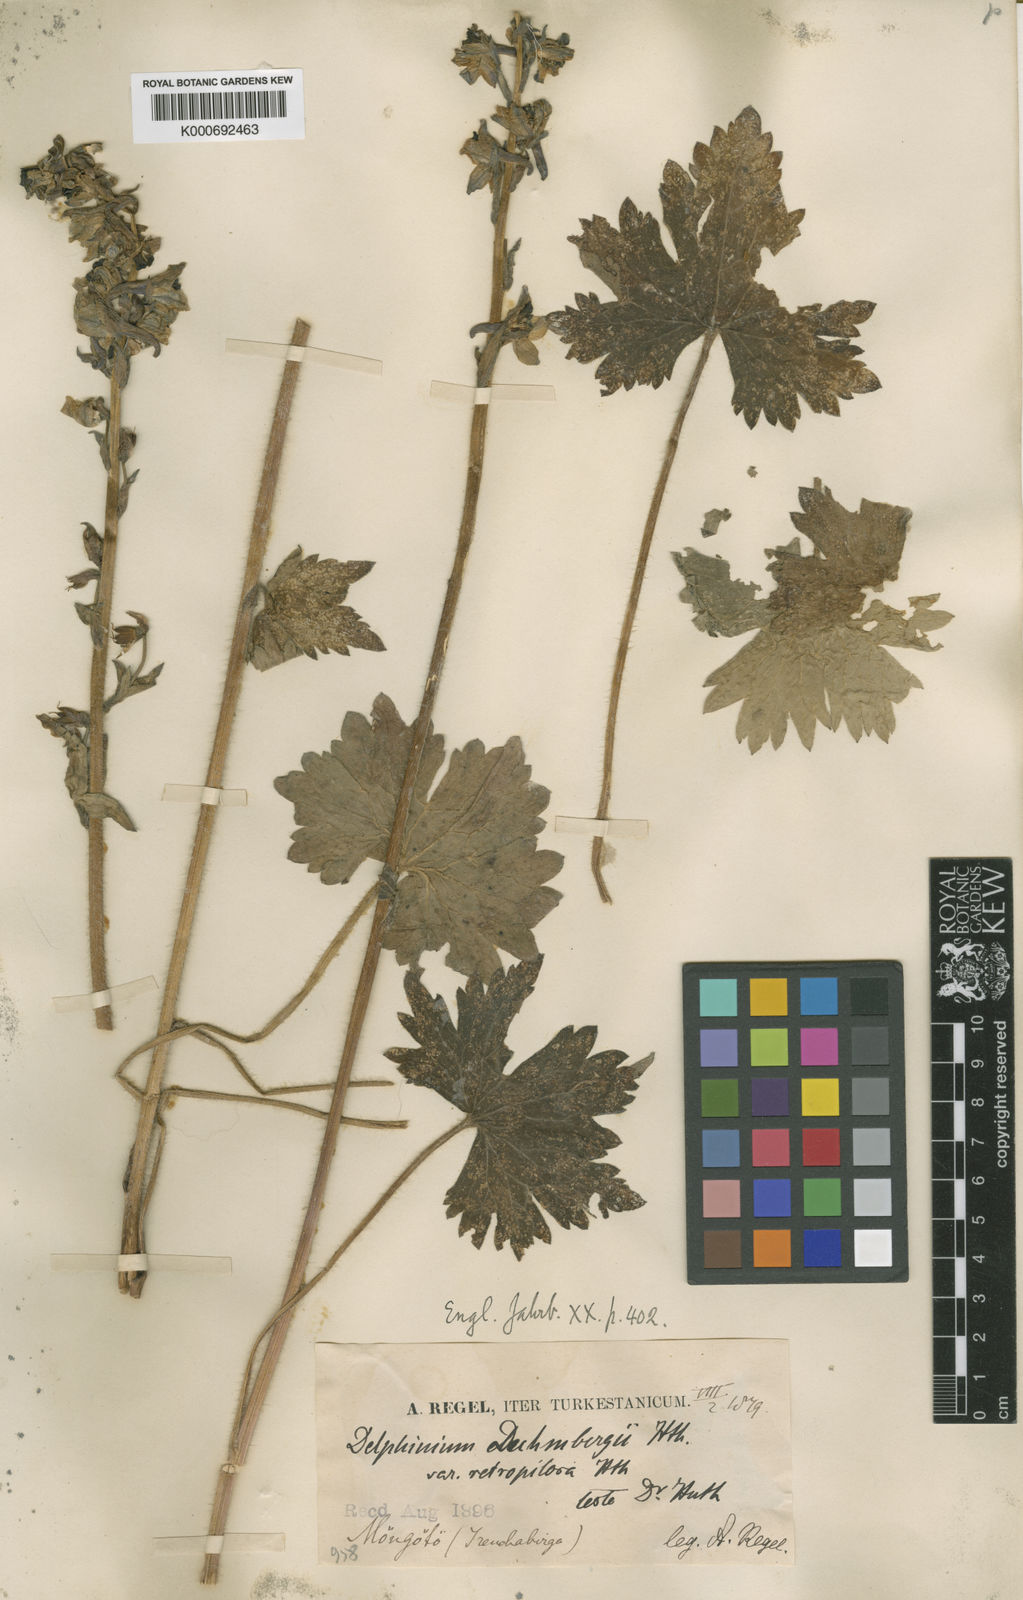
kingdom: Plantae
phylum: Tracheophyta
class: Magnoliopsida
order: Ranunculales
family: Ranunculaceae
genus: Delphinium
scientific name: Delphinium corymbosum
